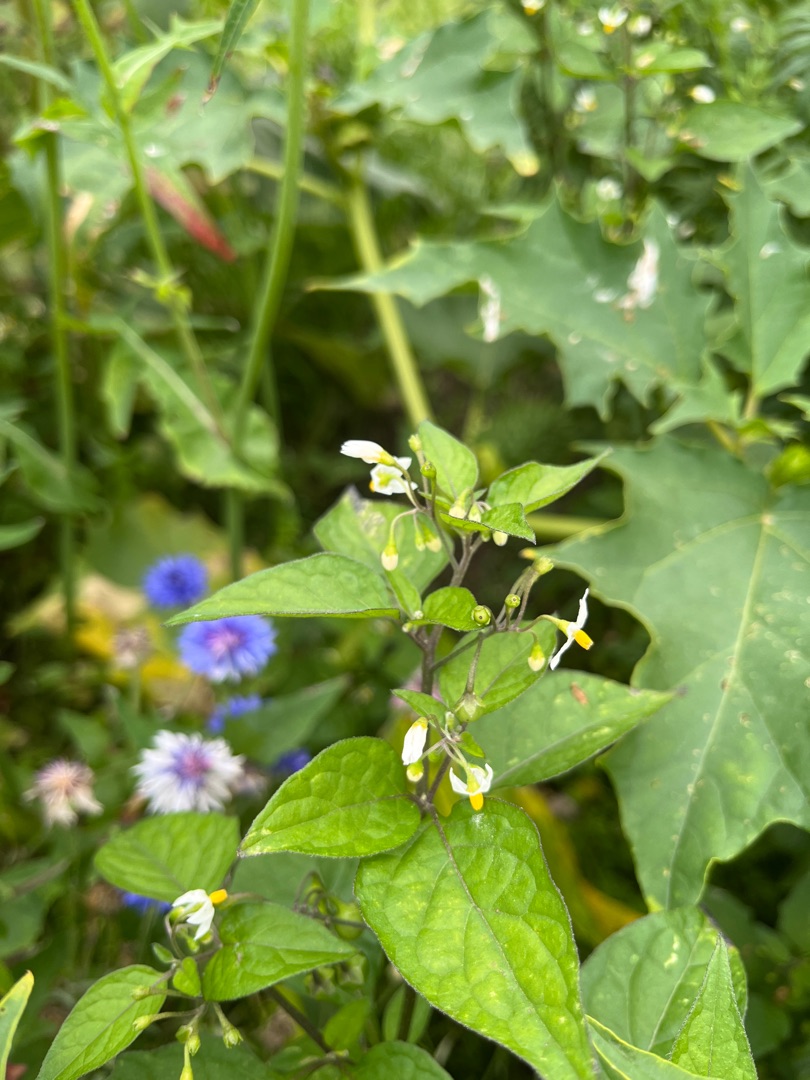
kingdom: Plantae
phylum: Tracheophyta
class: Magnoliopsida
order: Solanales
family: Solanaceae
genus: Solanum
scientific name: Solanum nigrum
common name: Sort natskygge (underart)
